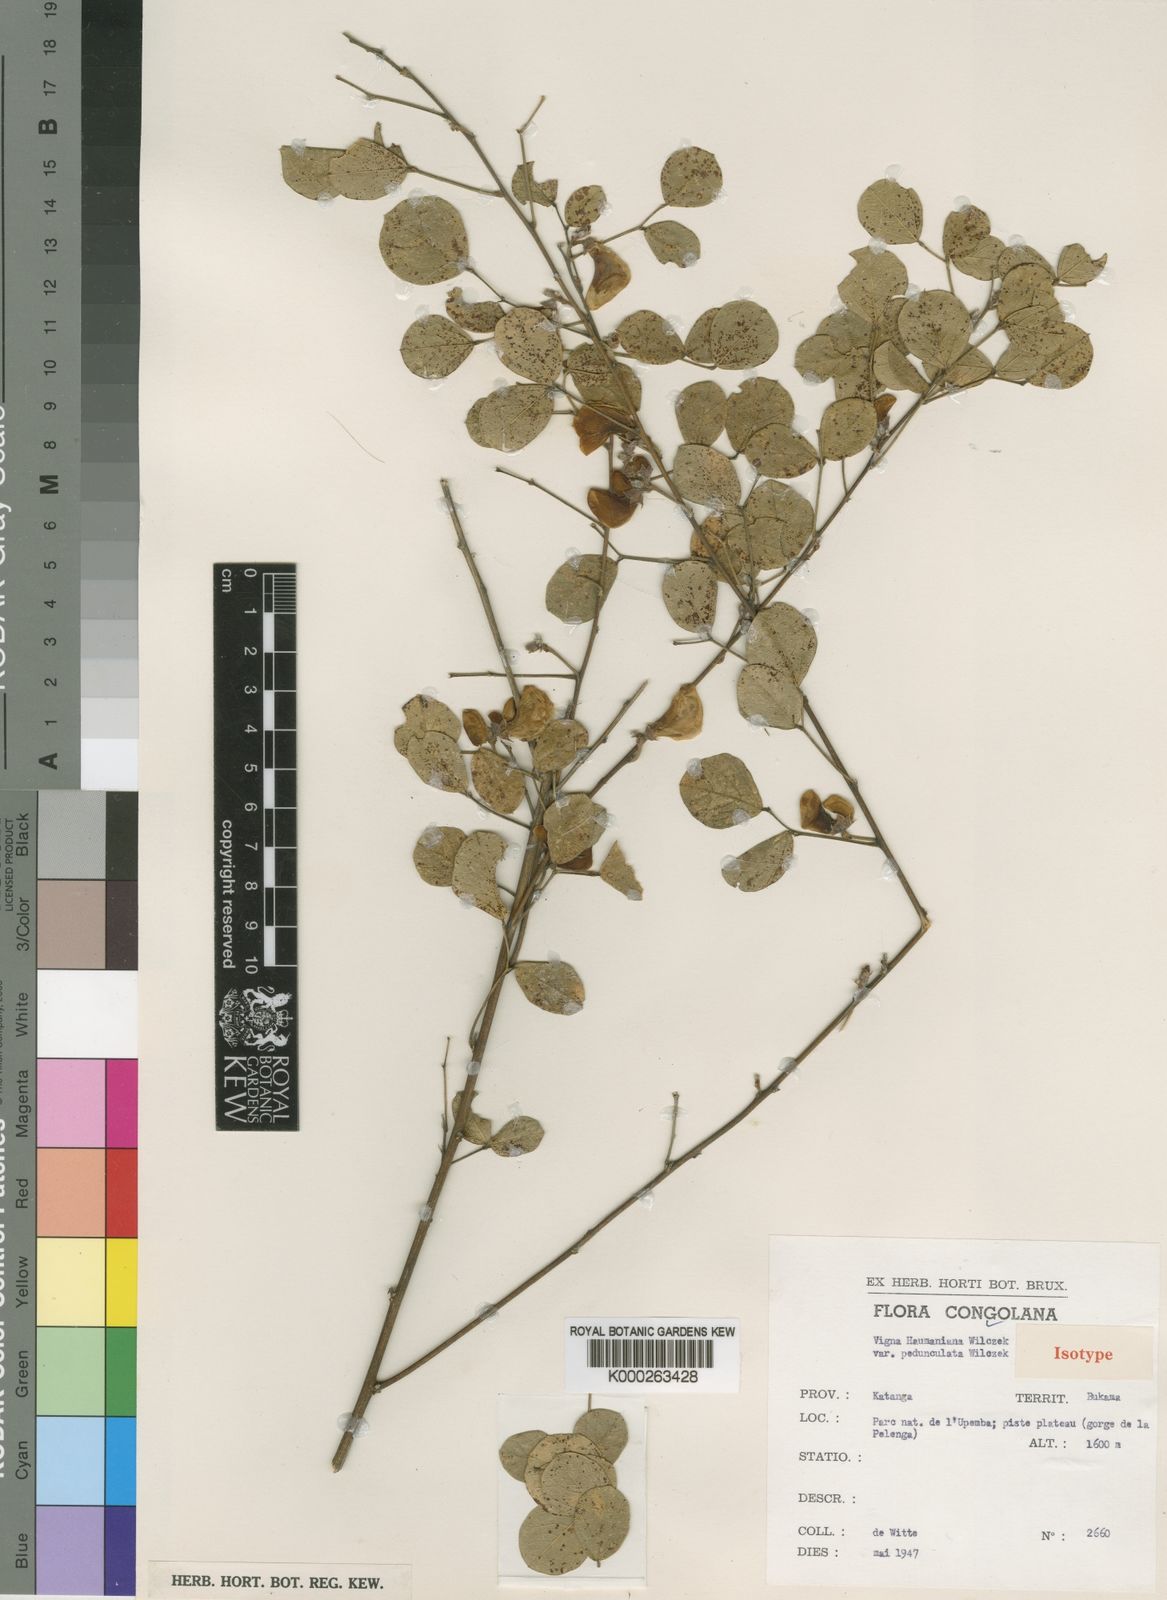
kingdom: Plantae
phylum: Tracheophyta
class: Magnoliopsida
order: Fabales
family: Fabaceae
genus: Vigna
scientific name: Vigna haumaniana
